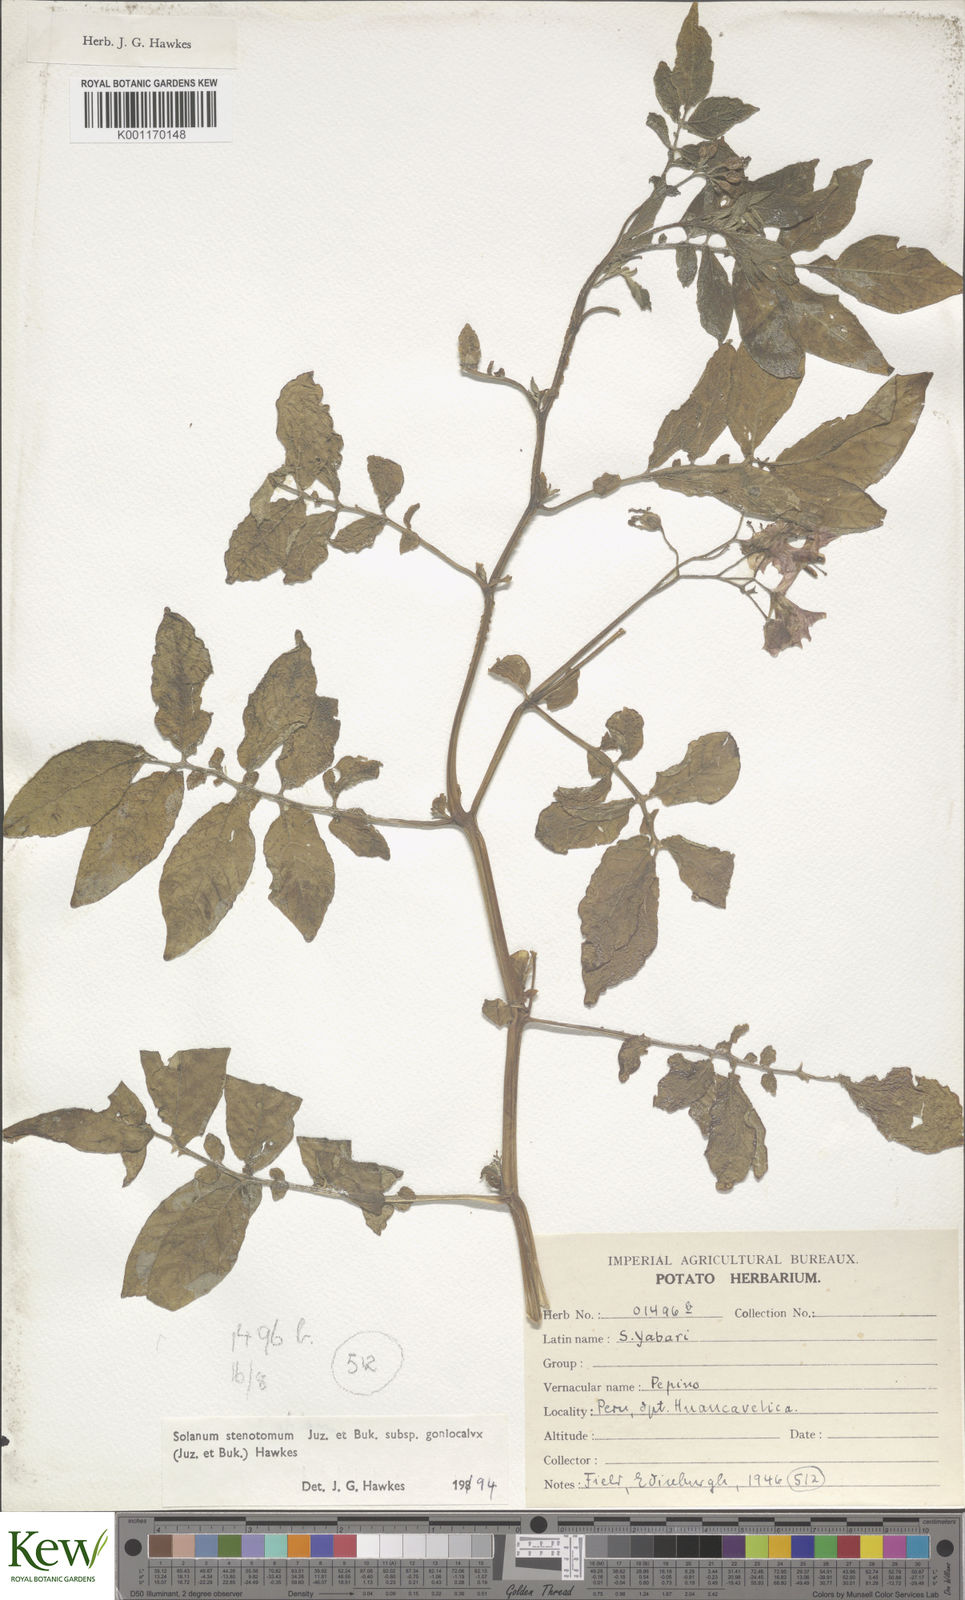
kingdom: Plantae
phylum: Tracheophyta
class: Magnoliopsida
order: Solanales
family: Solanaceae
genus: Solanum
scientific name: Solanum tuberosum
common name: Potato
